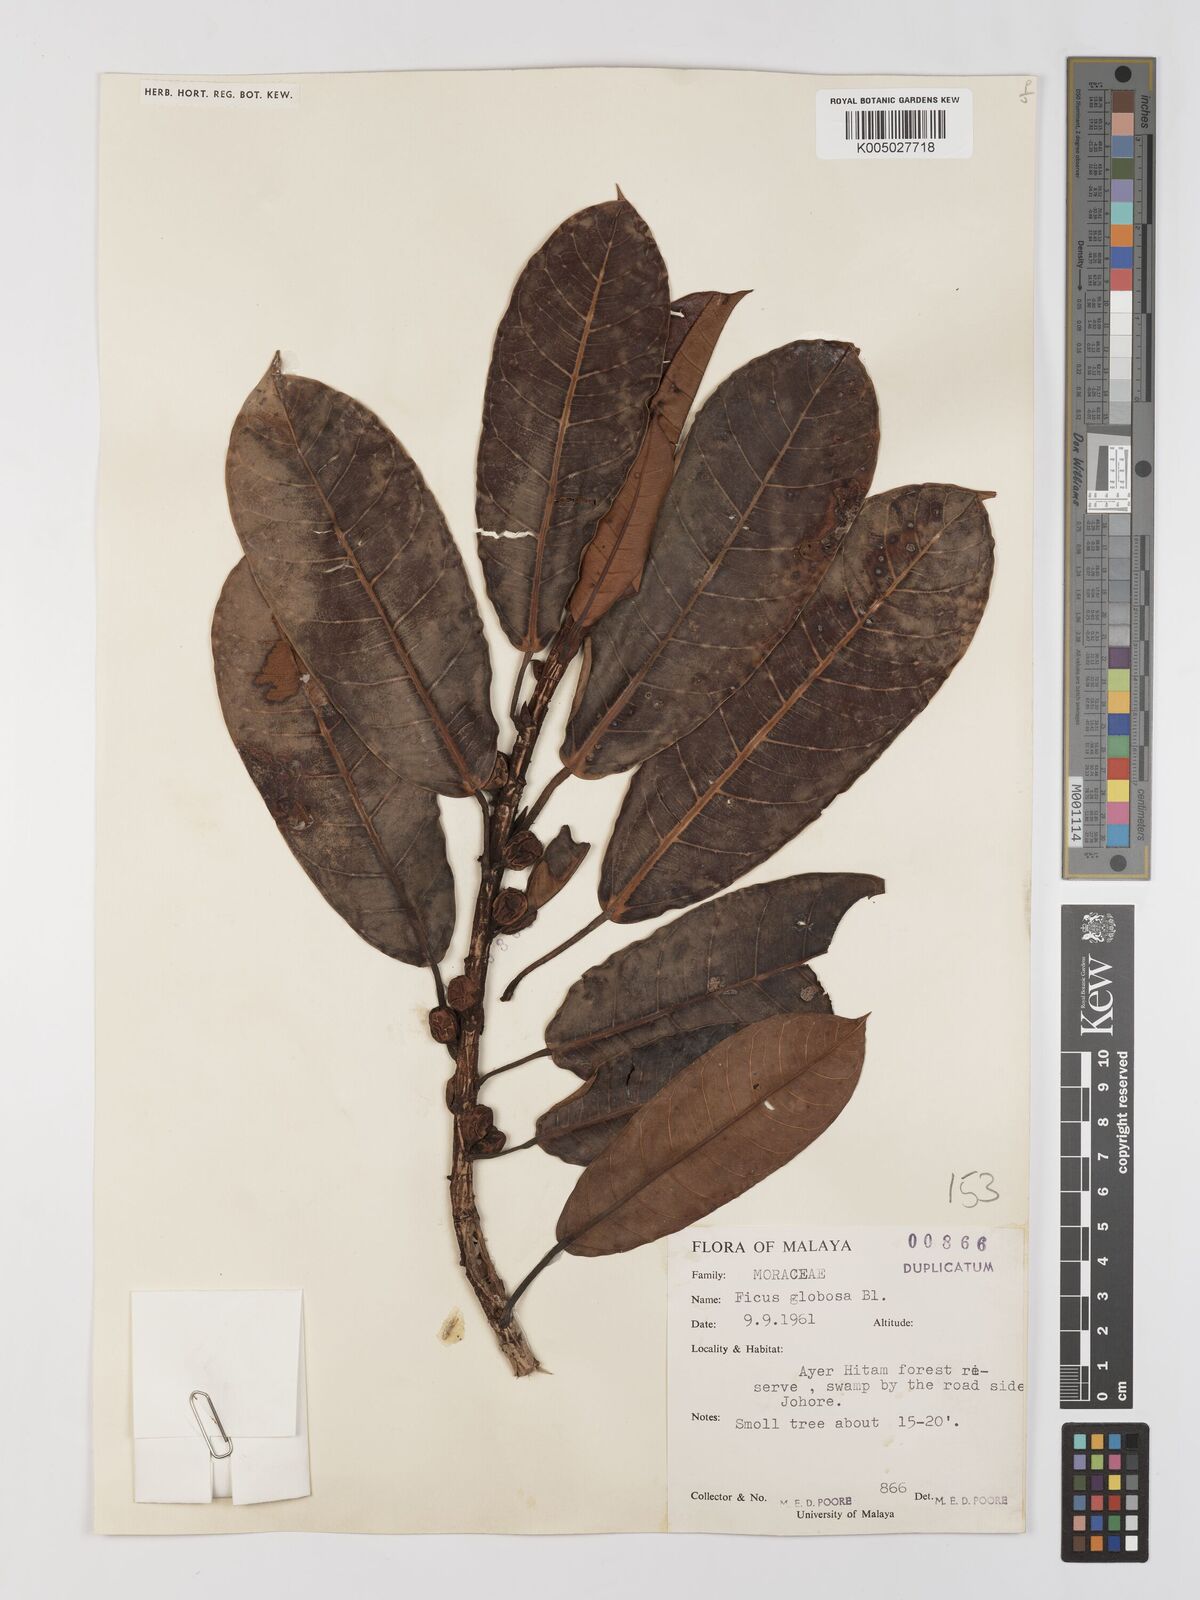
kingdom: Plantae
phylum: Tracheophyta
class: Magnoliopsida
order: Rosales
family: Moraceae
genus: Ficus
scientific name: Ficus
